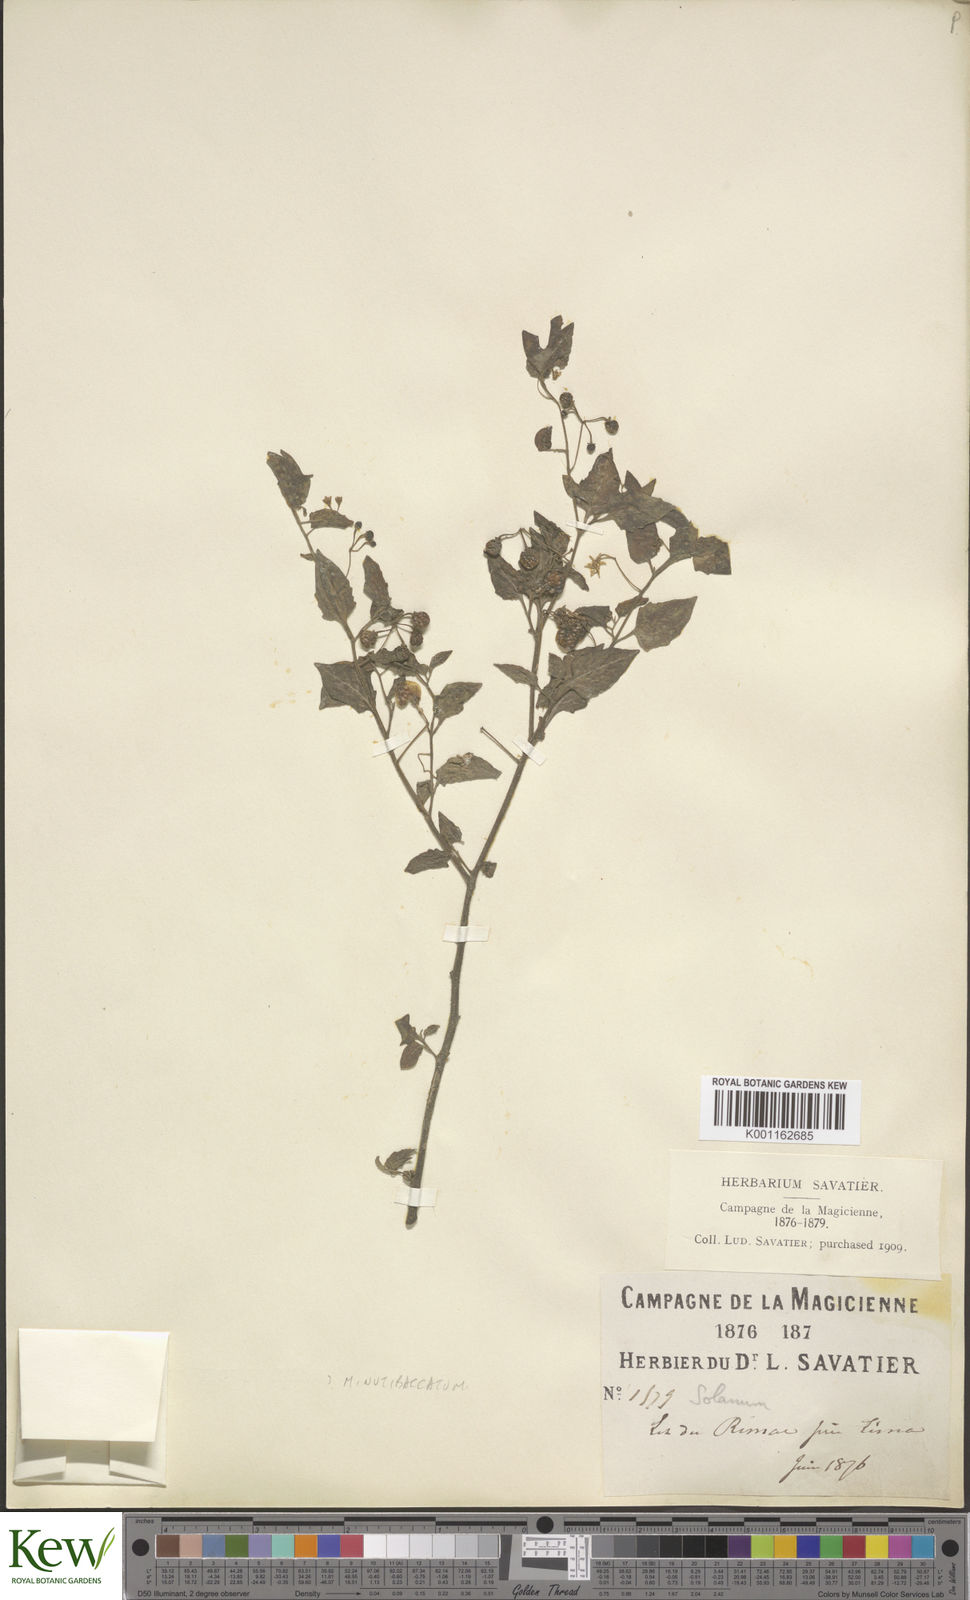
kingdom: Plantae
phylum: Tracheophyta
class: Magnoliopsida
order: Solanales
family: Solanaceae
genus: Solanum
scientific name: Solanum americanum
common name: American black nightshade
